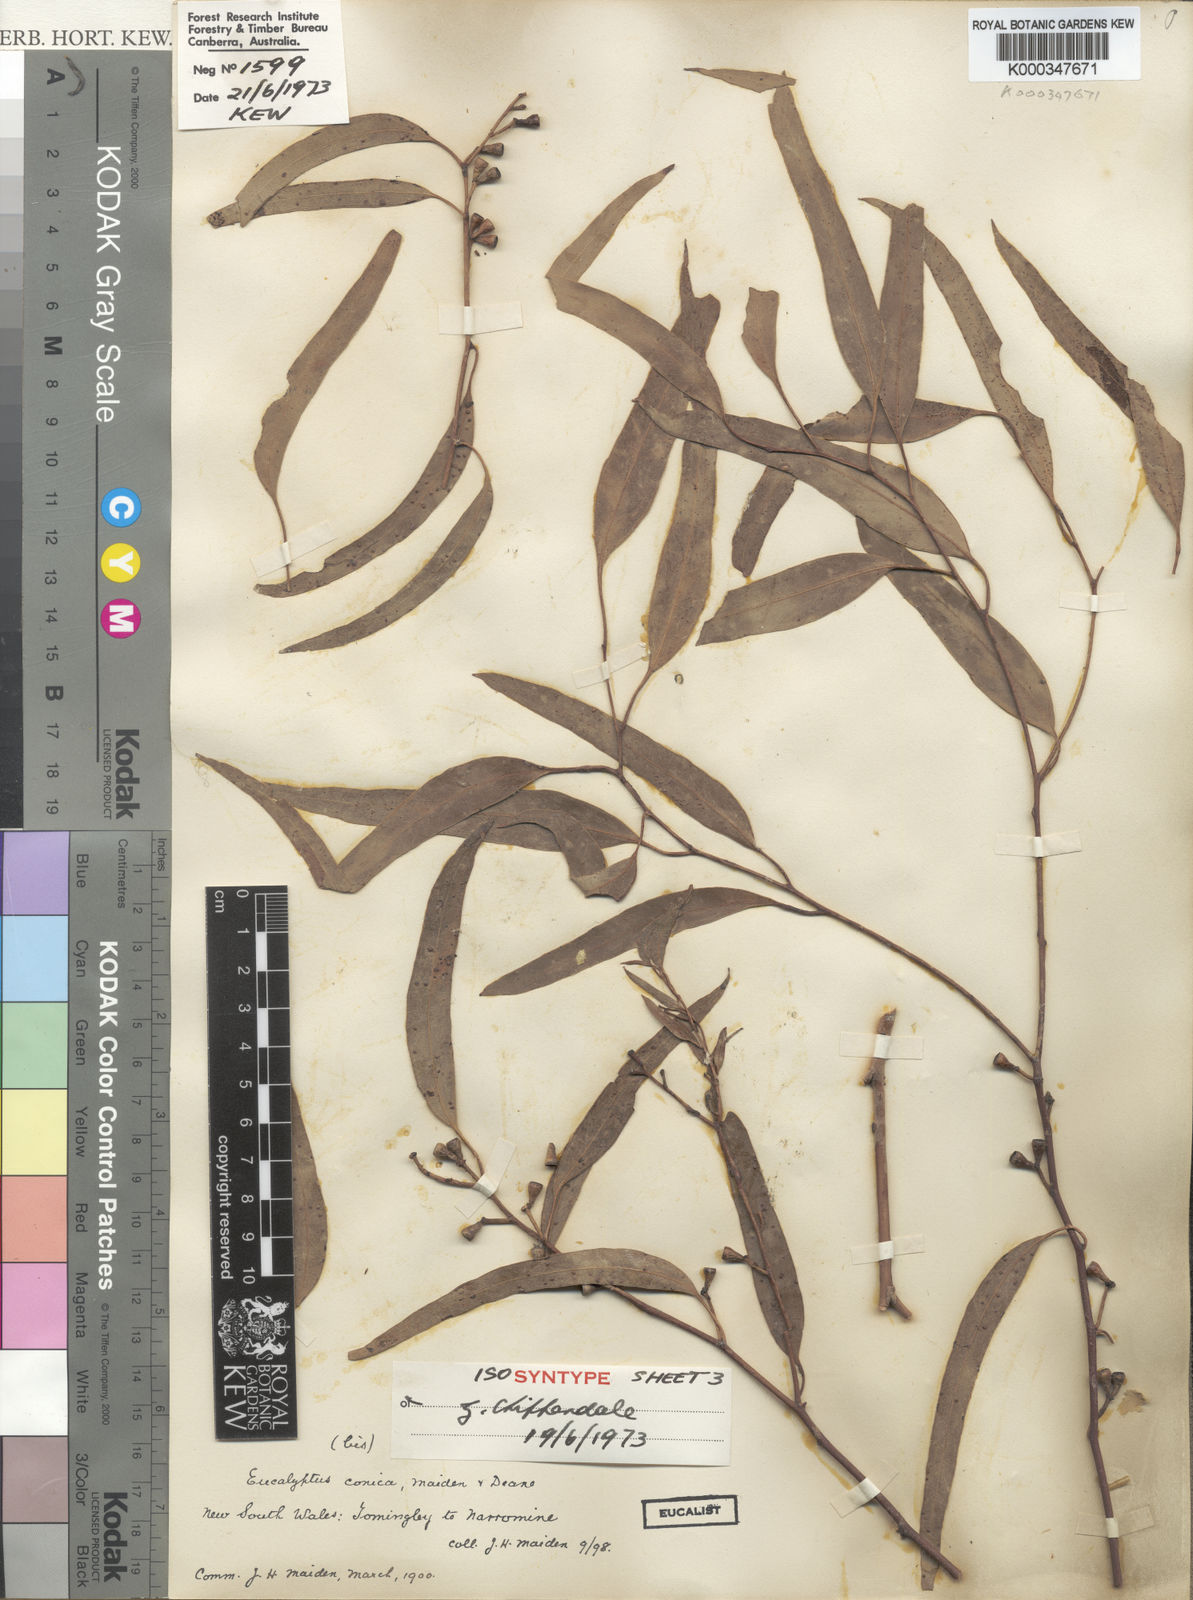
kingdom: Plantae
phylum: Tracheophyta
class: Magnoliopsida
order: Myrtales
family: Myrtaceae
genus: Eucalyptus
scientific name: Eucalyptus conica
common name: Fuzzy-box
